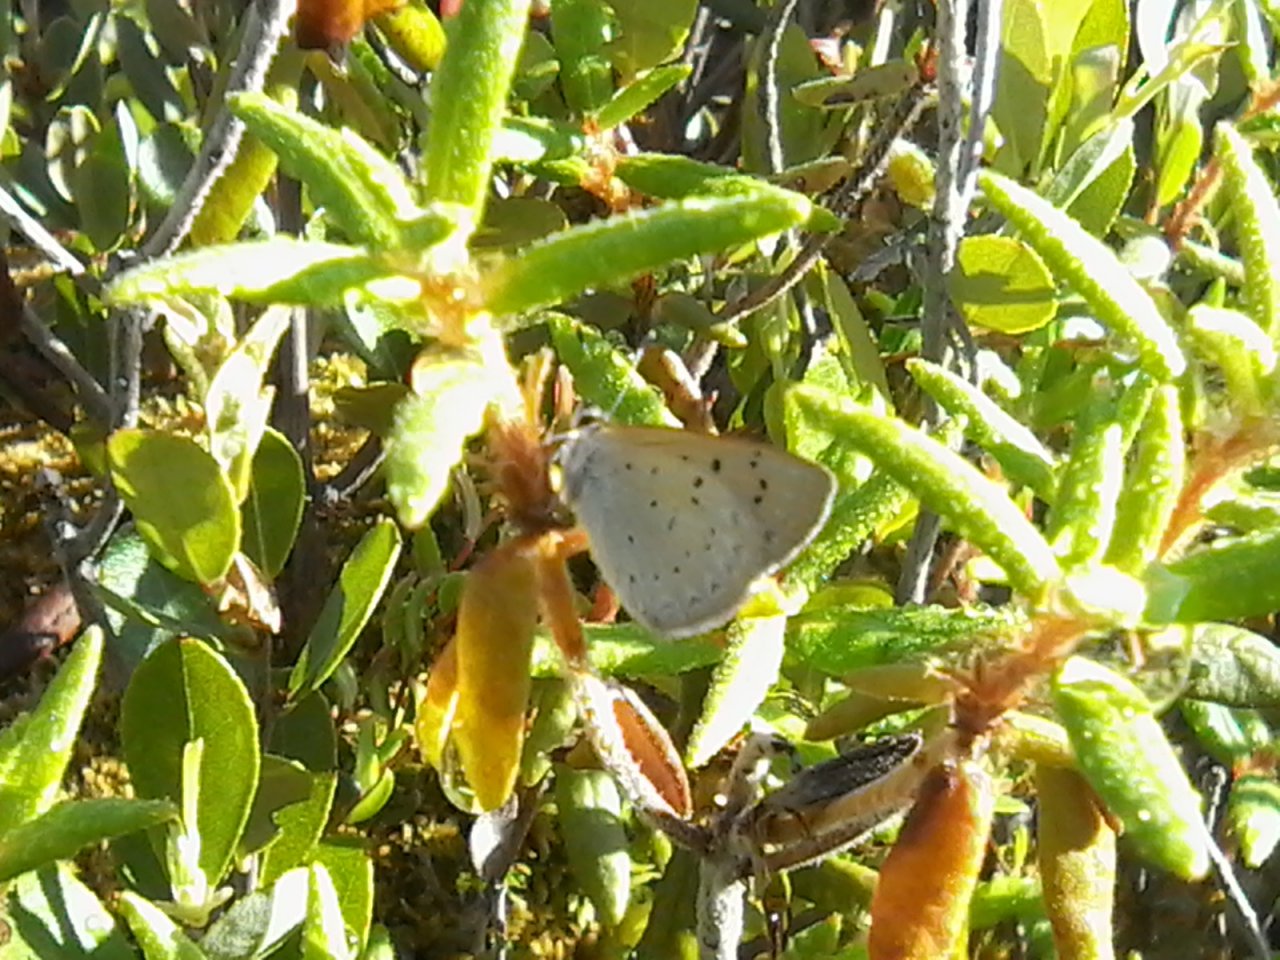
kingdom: Animalia
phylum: Arthropoda
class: Insecta
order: Lepidoptera
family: Sesiidae
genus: Sesia
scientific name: Sesia Lycaena epixanthe
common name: Bog Copper
